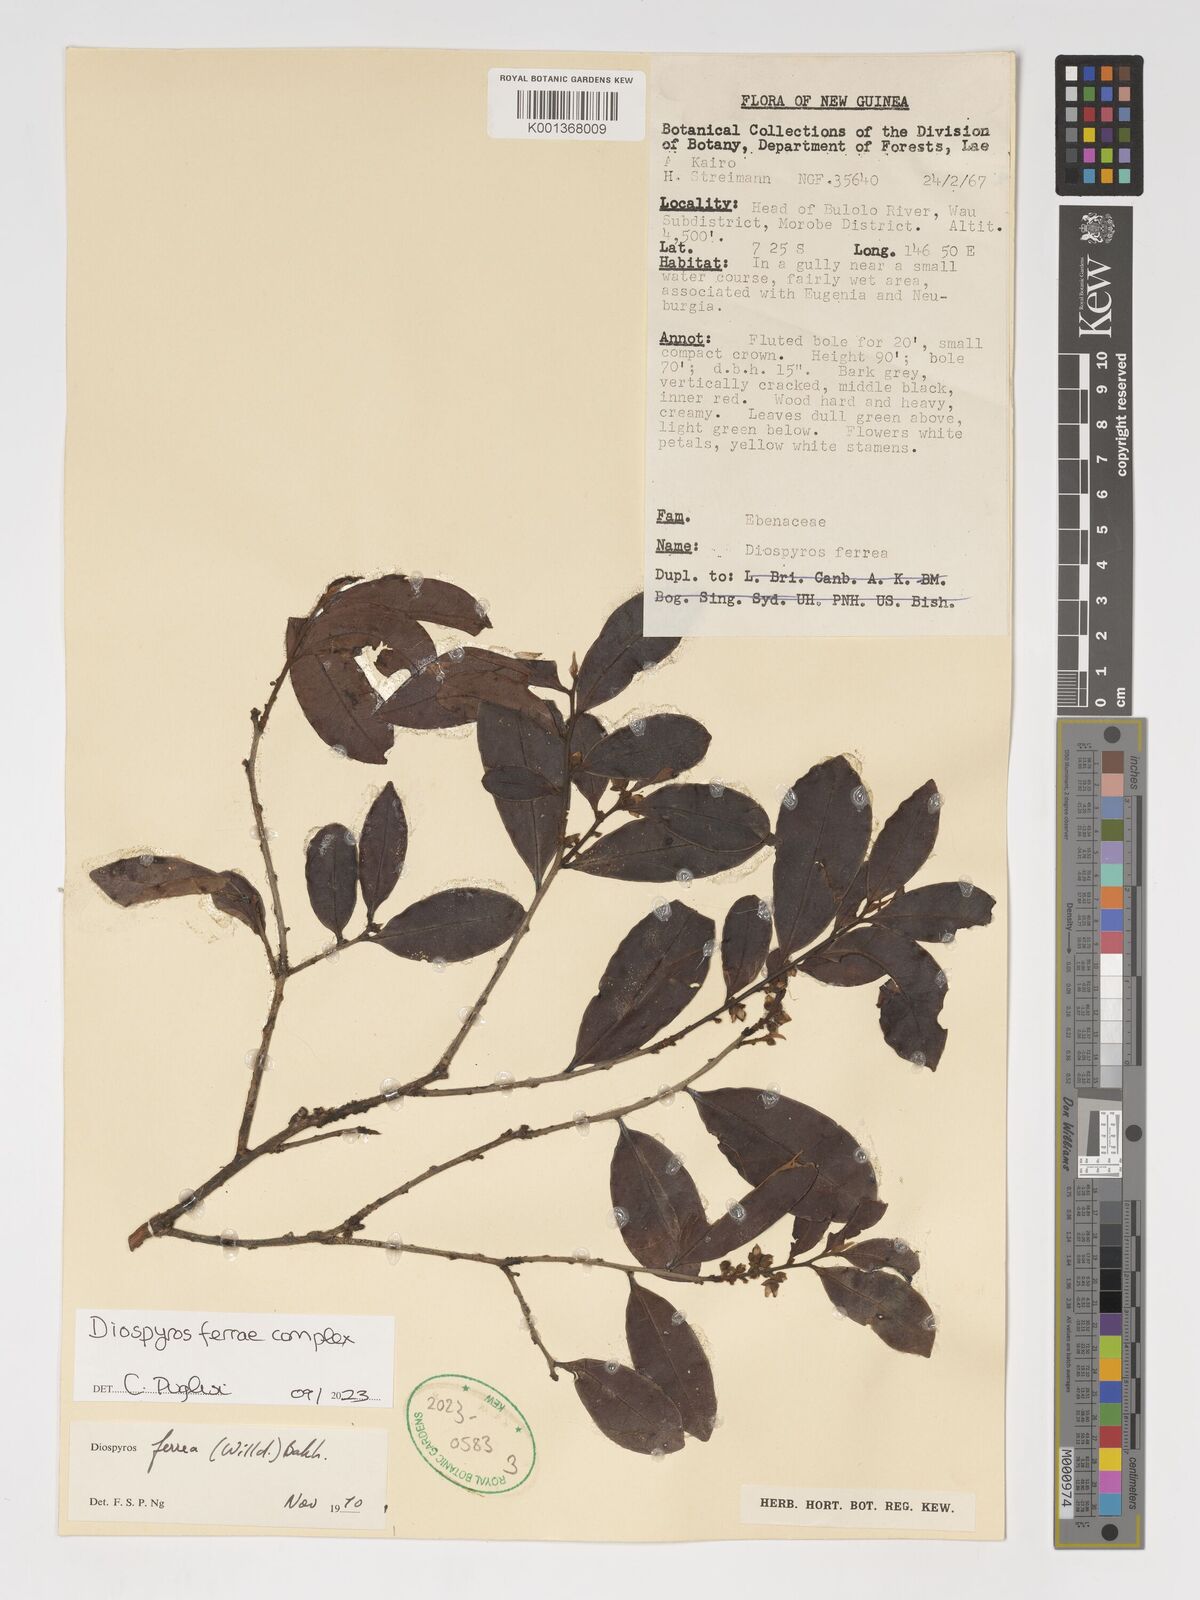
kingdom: Plantae
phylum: Tracheophyta
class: Magnoliopsida
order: Ericales
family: Ebenaceae
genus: Diospyros
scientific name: Diospyros ferrea
